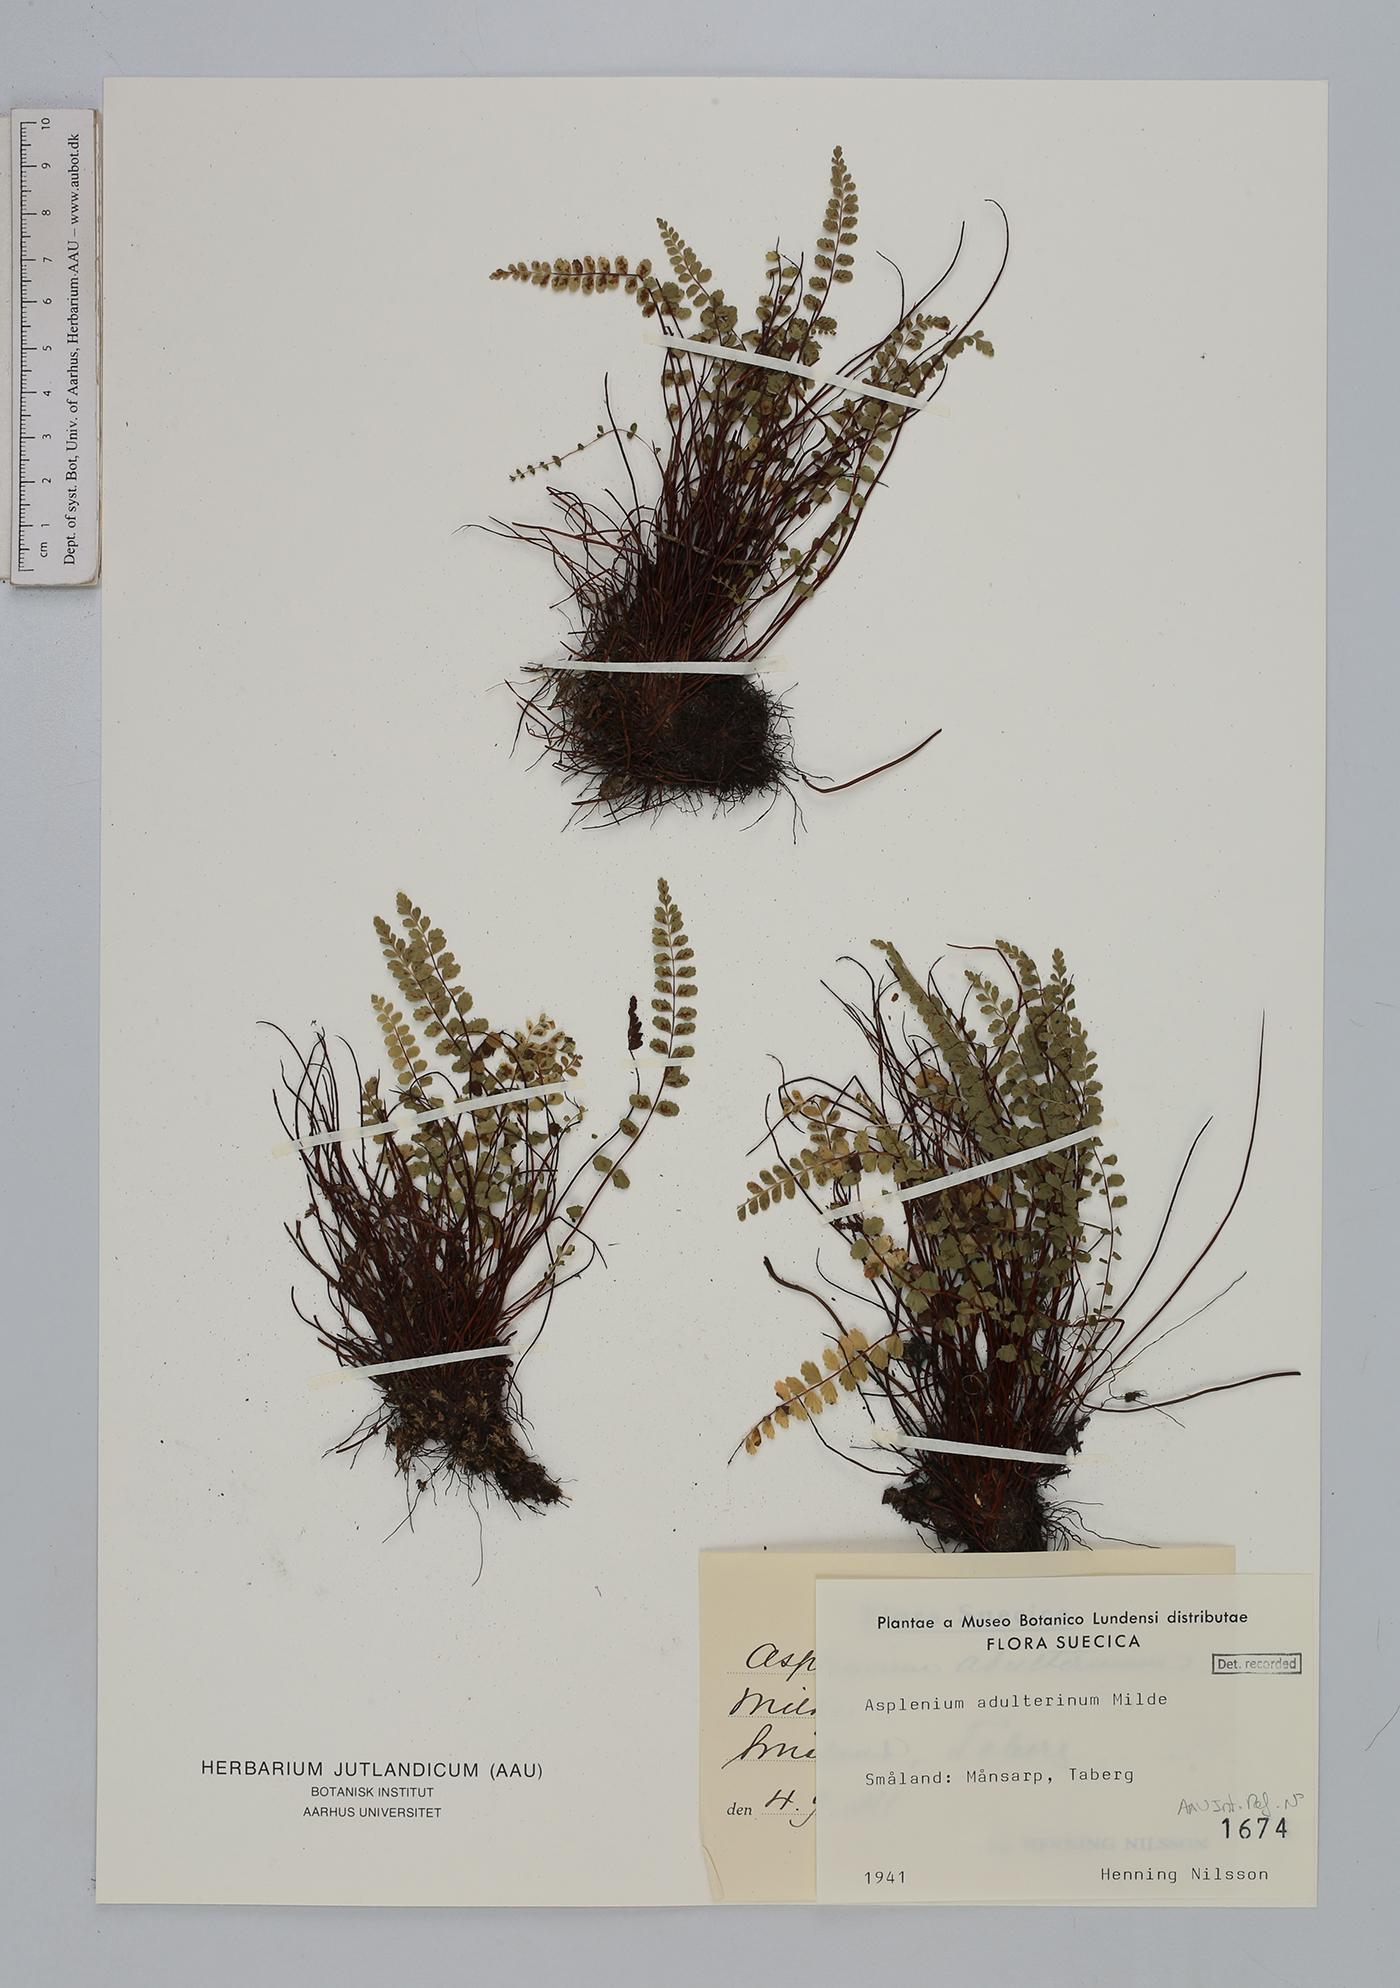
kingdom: Plantae
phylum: Tracheophyta
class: Polypodiopsida
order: Polypodiales
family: Aspleniaceae
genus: Asplenium
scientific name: Asplenium adulterinum
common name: Adulterated spleenwort
